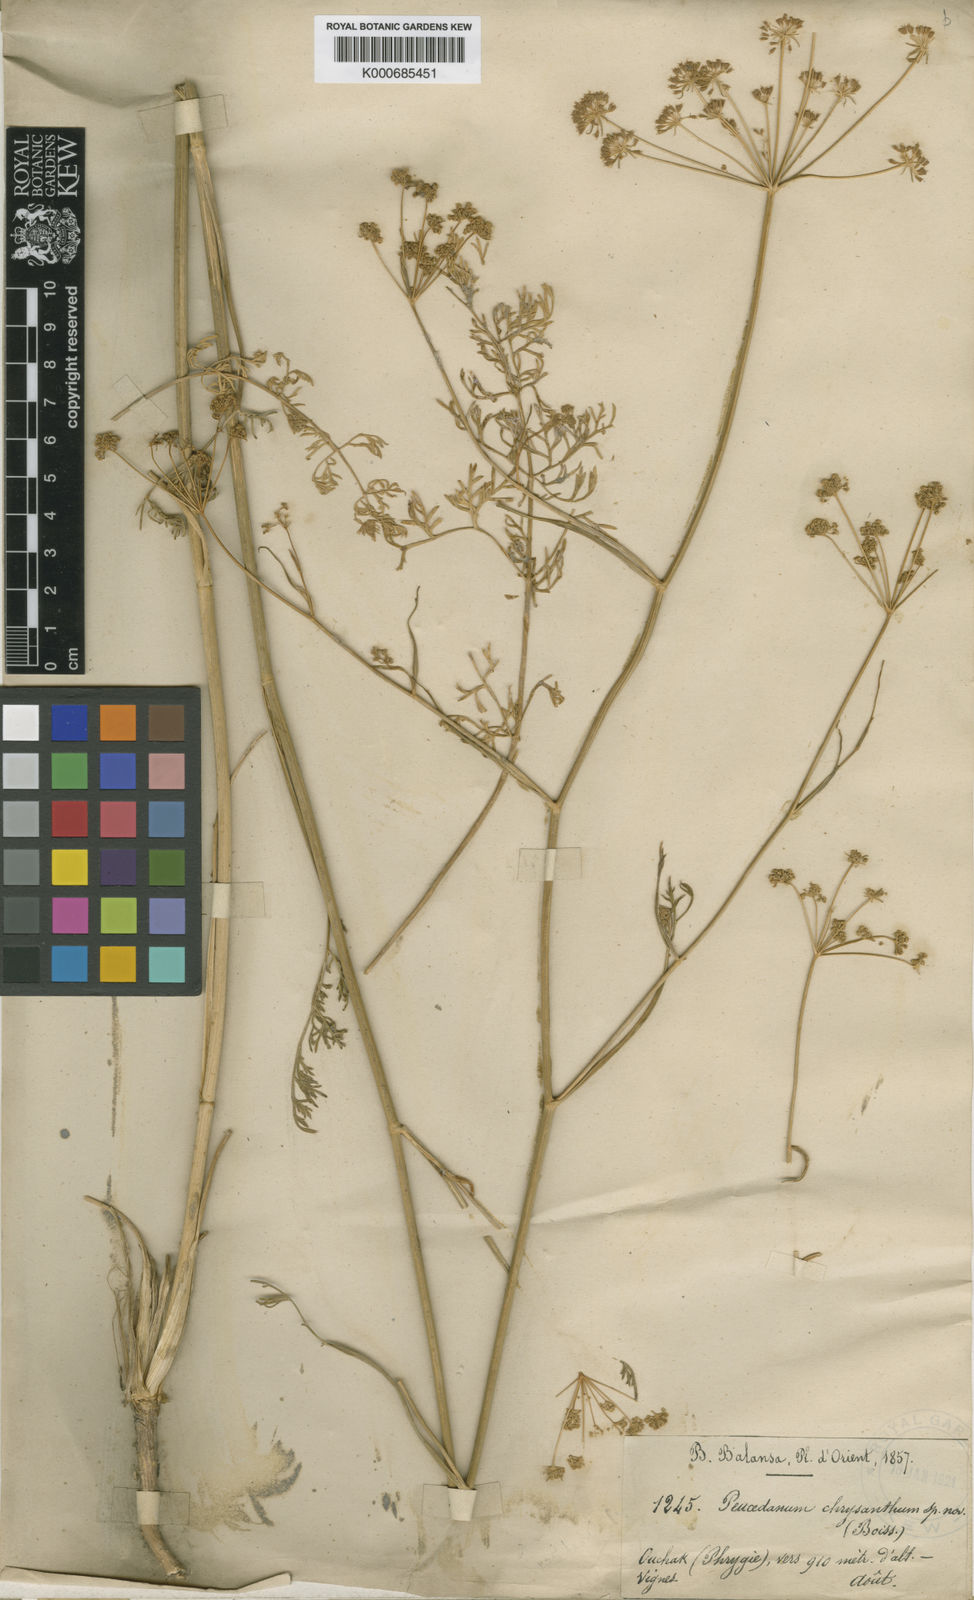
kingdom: Plantae
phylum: Tracheophyta
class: Magnoliopsida
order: Apiales
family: Apiaceae
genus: Dichoropetalum
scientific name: Dichoropetalum chryseum
